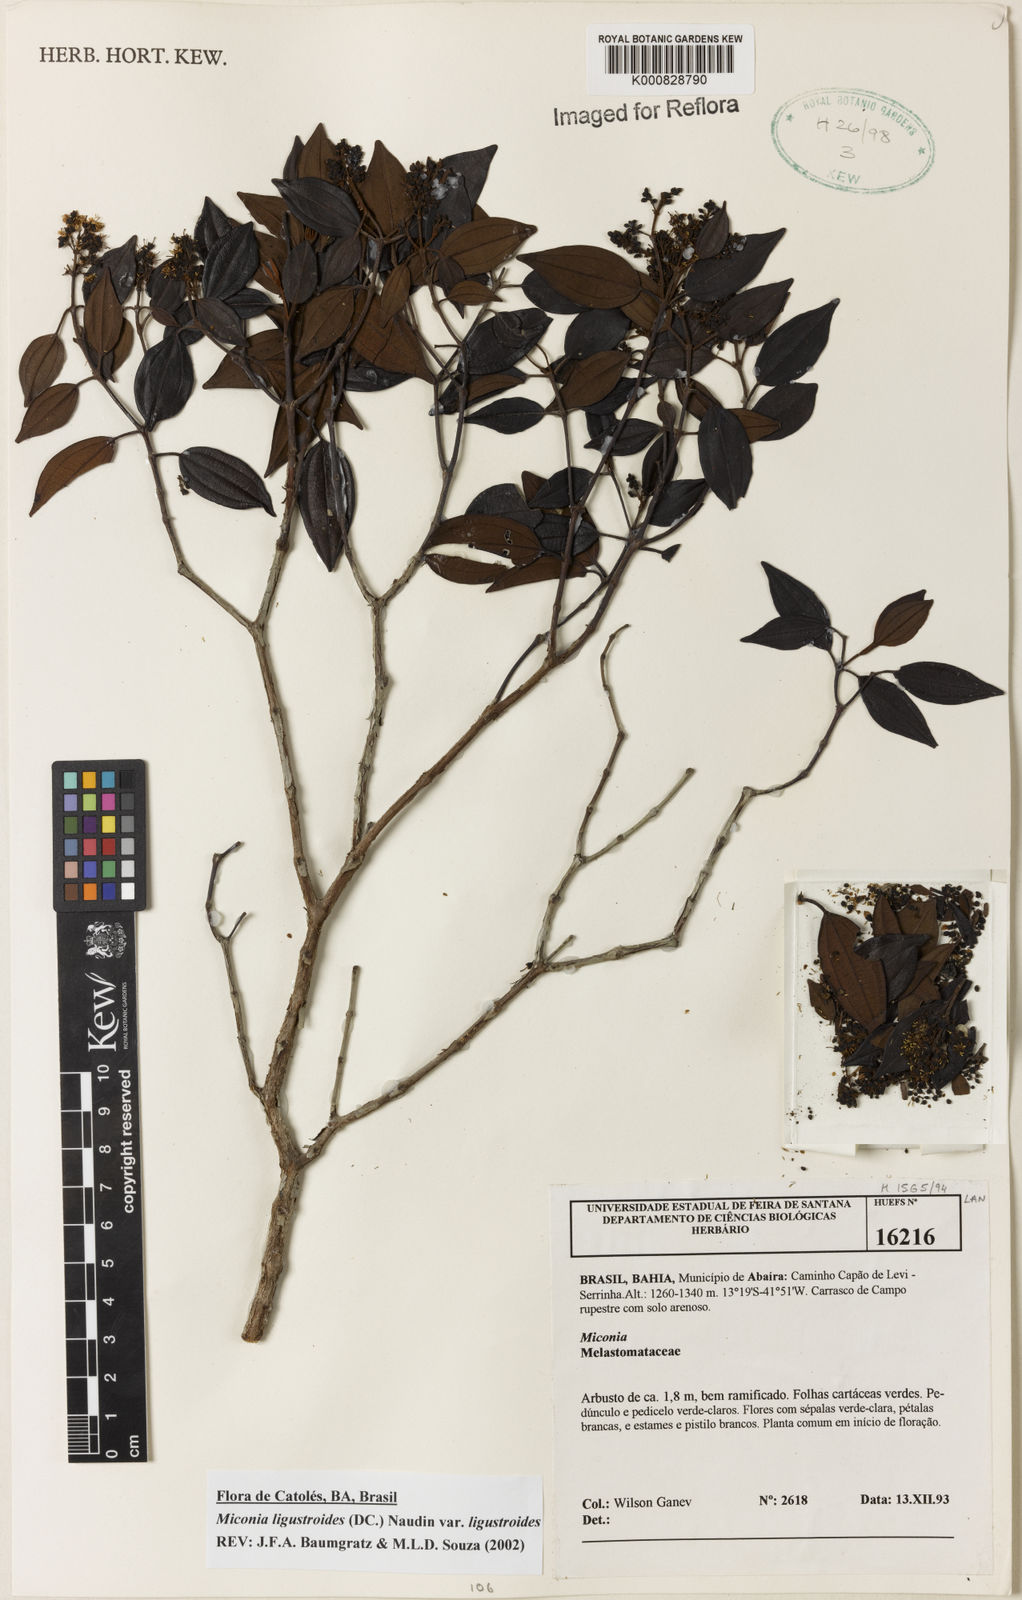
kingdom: Plantae
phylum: Tracheophyta
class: Magnoliopsida
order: Myrtales
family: Melastomataceae
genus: Miconia
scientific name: Miconia ligustroides
